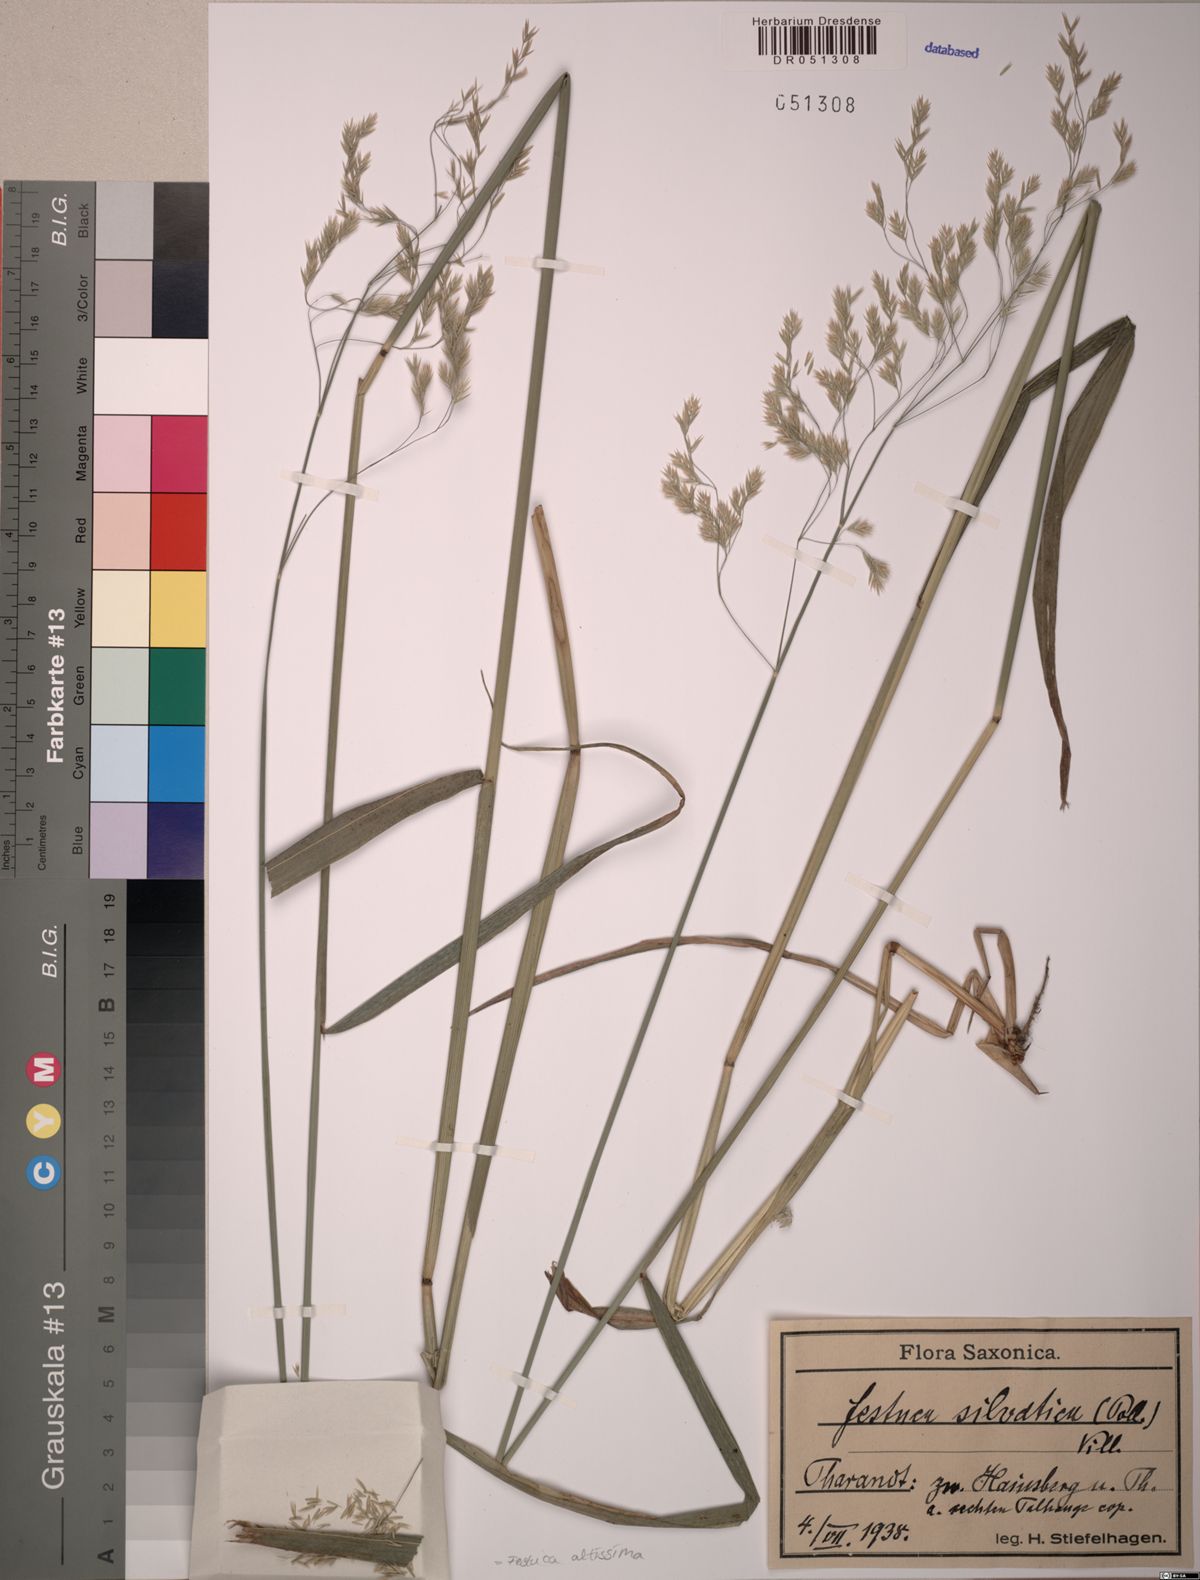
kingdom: Plantae
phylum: Tracheophyta
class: Liliopsida
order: Poales
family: Poaceae
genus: Festuca
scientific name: Festuca altissima
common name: Wood fescue
